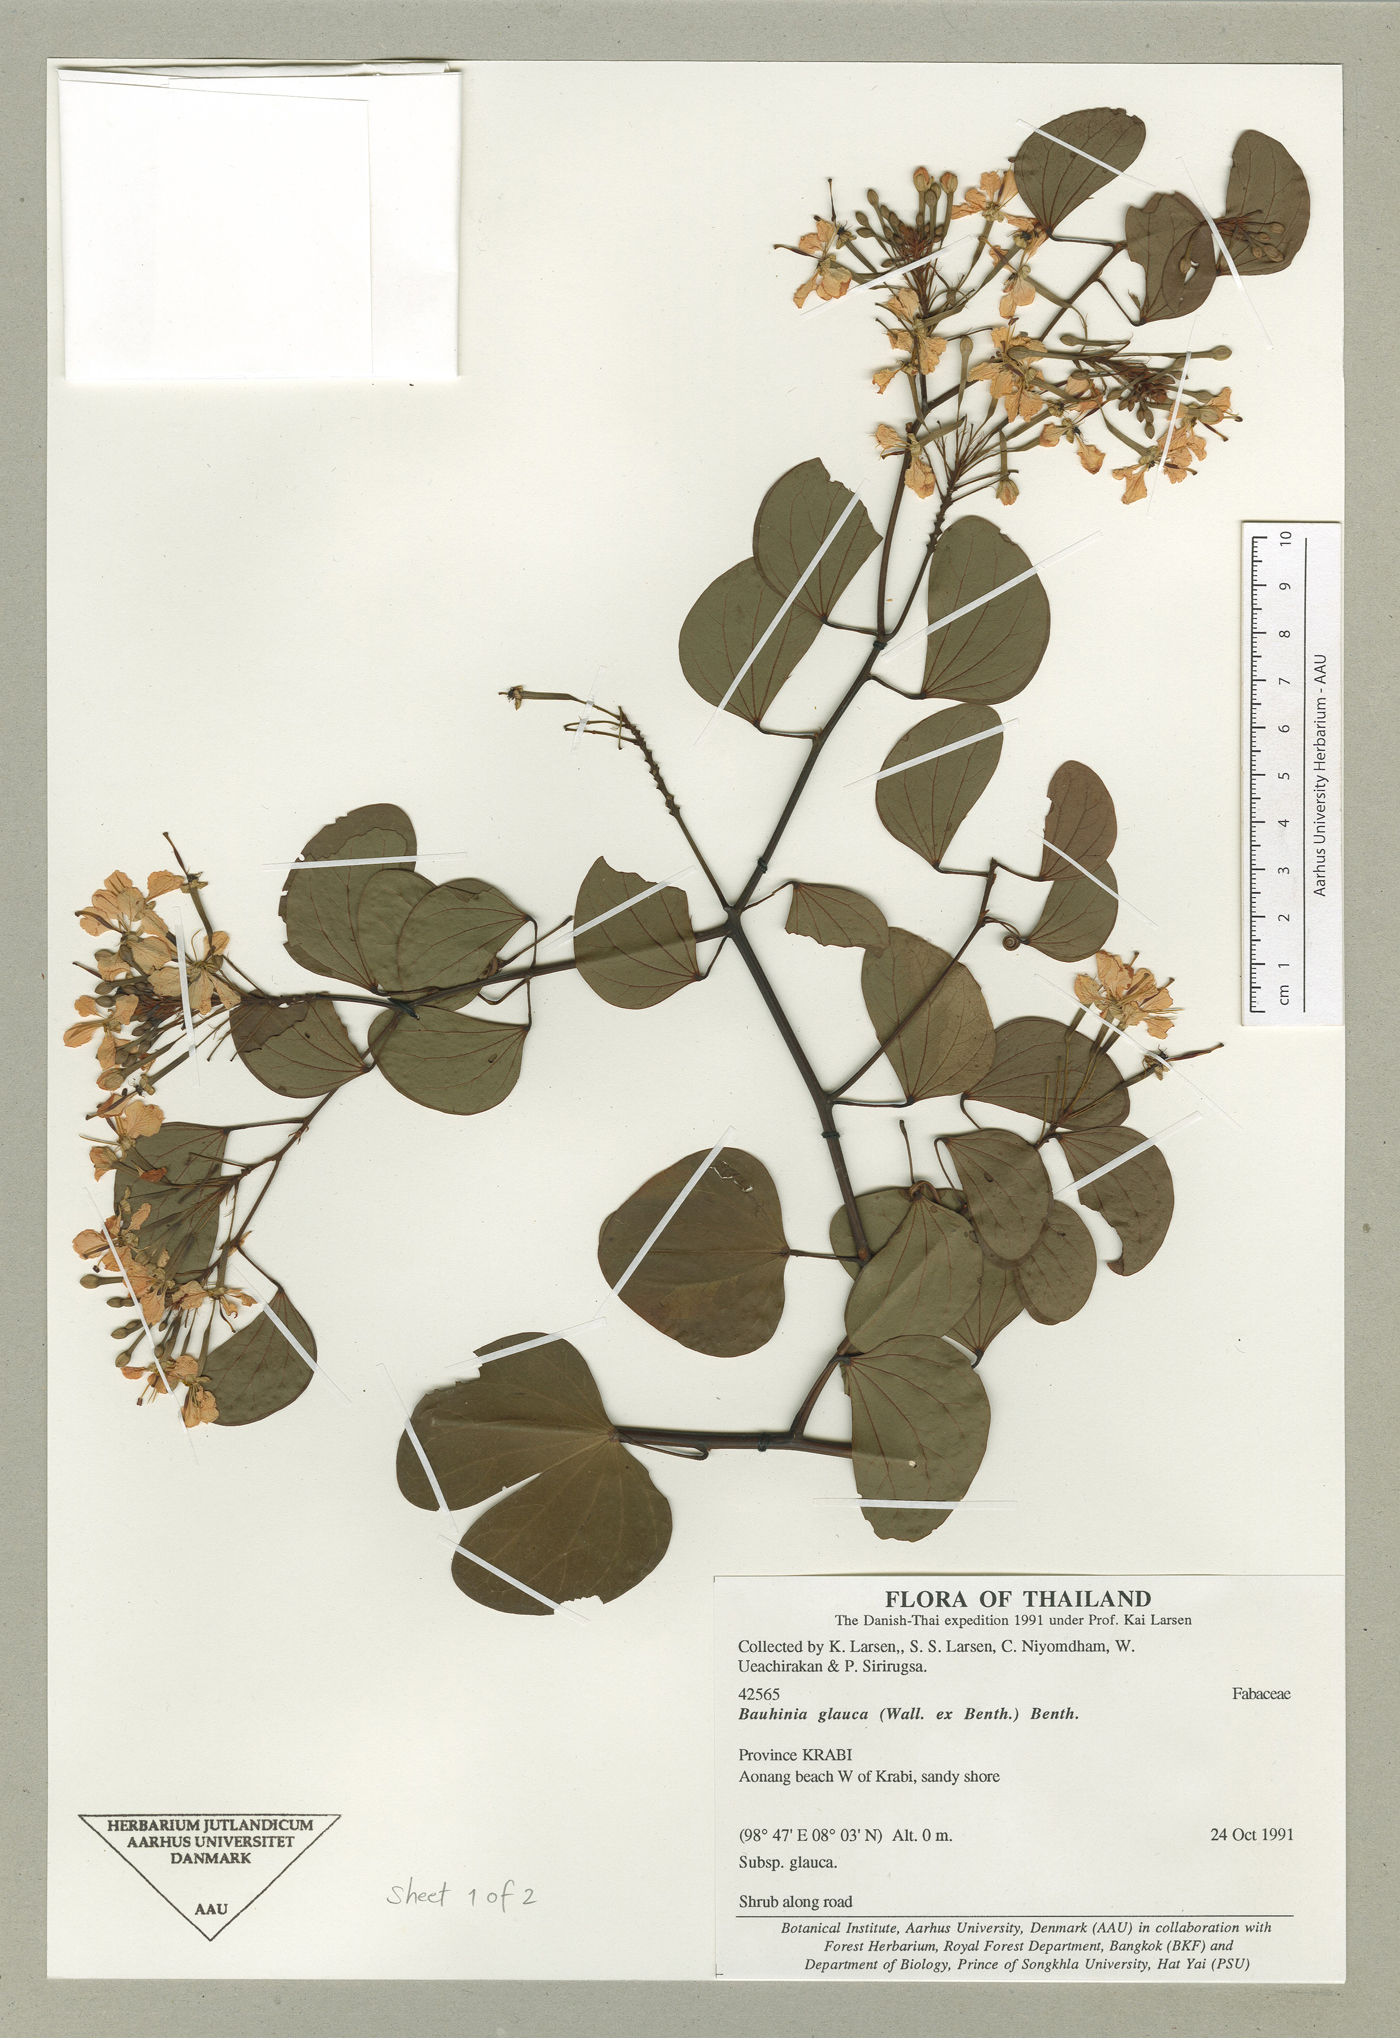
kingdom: Plantae
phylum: Tracheophyta
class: Magnoliopsida
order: Fabales
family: Fabaceae
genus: Bauhinia
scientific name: Bauhinia glauca
